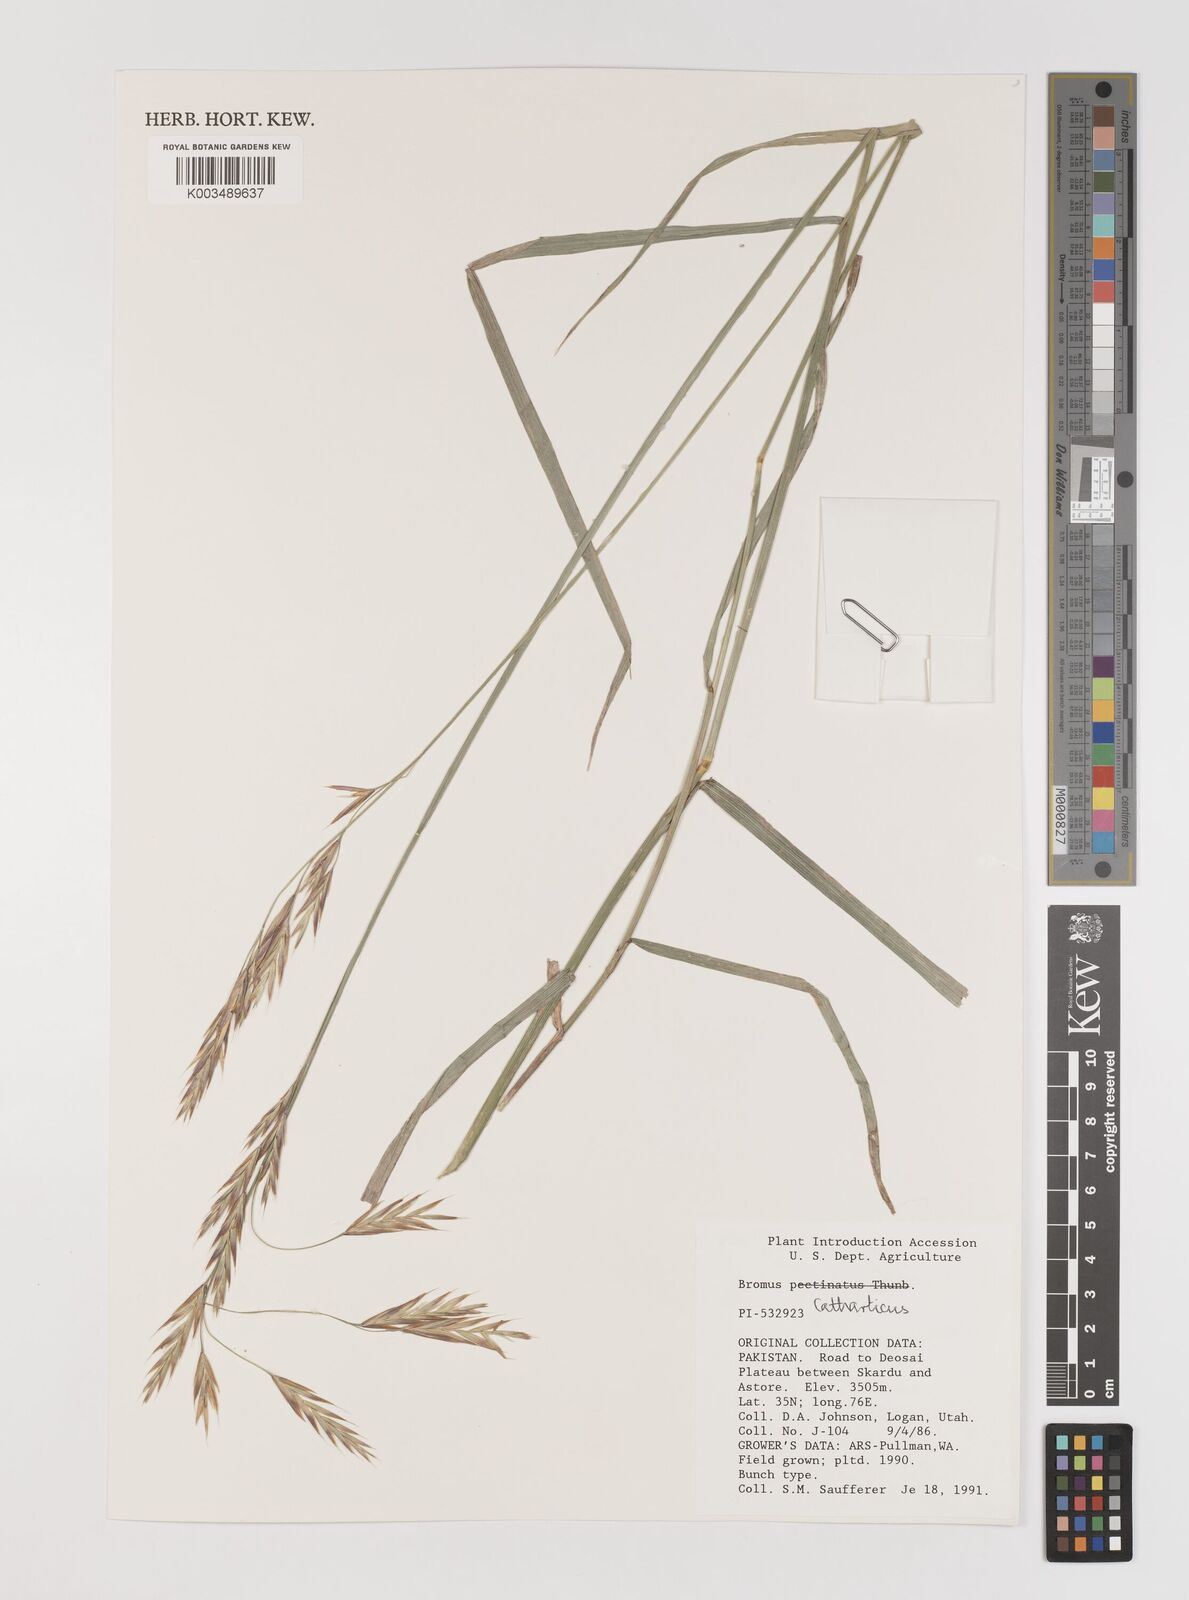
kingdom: Plantae
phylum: Tracheophyta
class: Liliopsida
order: Poales
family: Poaceae
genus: Bromus
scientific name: Bromus catharticus
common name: Rescuegrass
